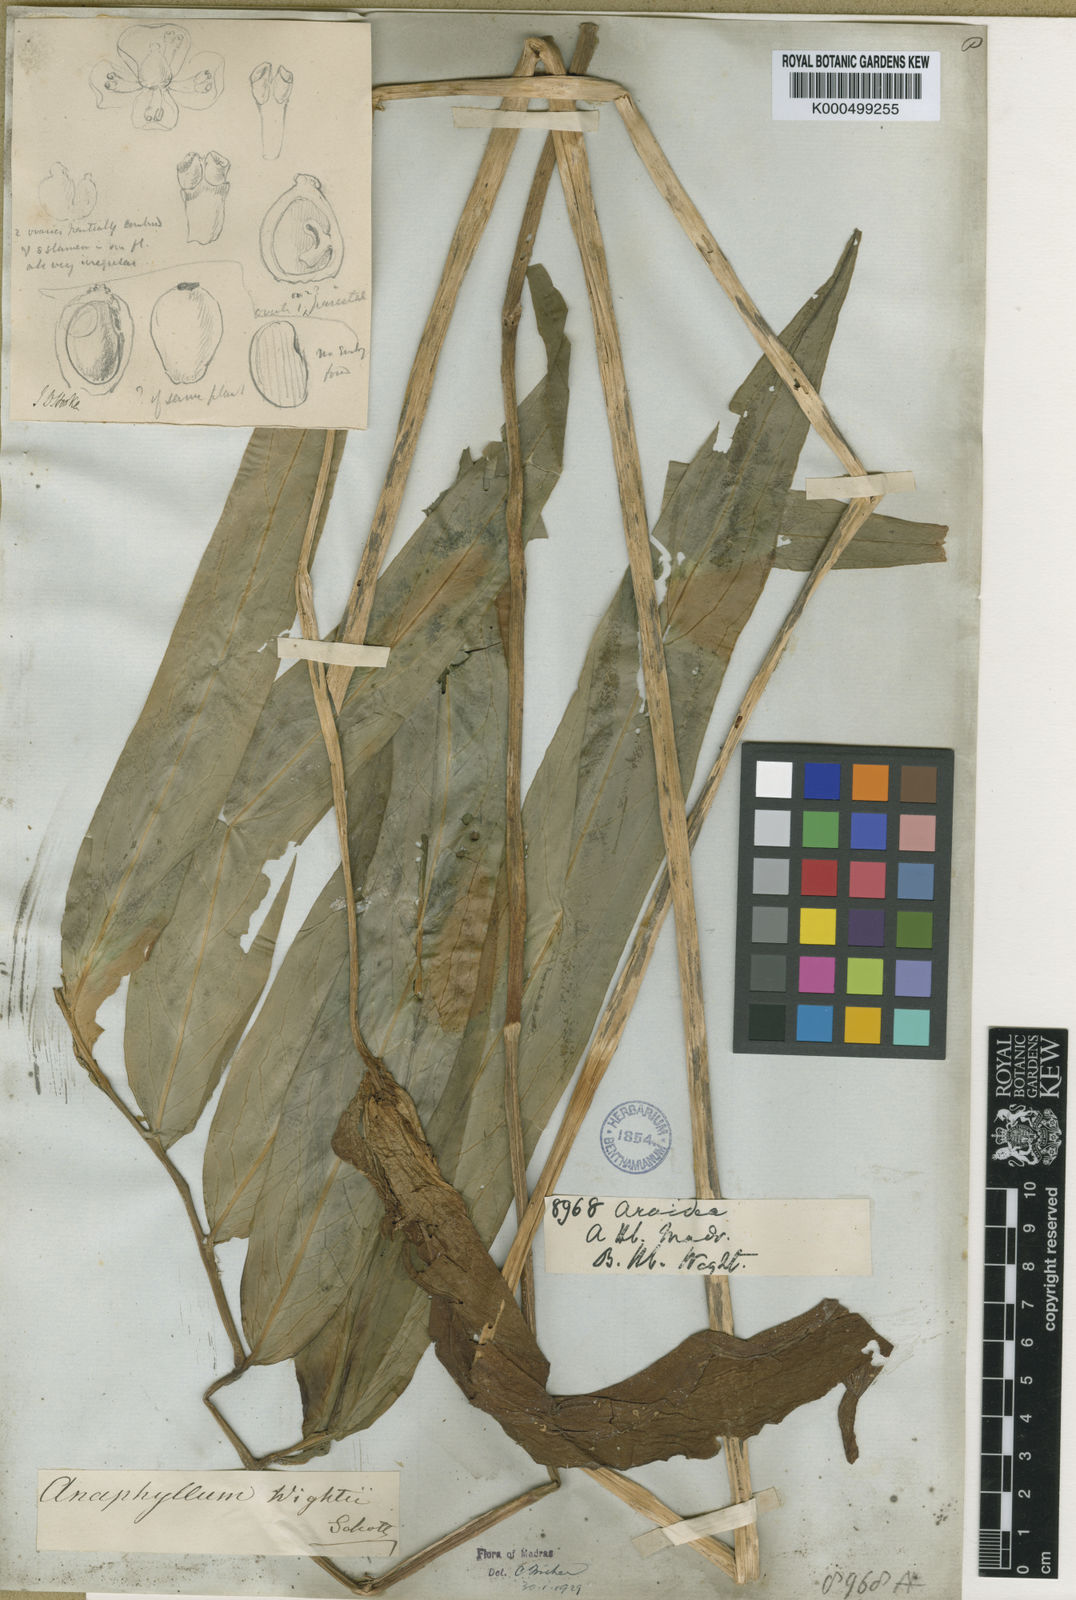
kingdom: Plantae
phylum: Tracheophyta
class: Liliopsida
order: Alismatales
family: Araceae
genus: Anaphyllum
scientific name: Anaphyllum wightii
